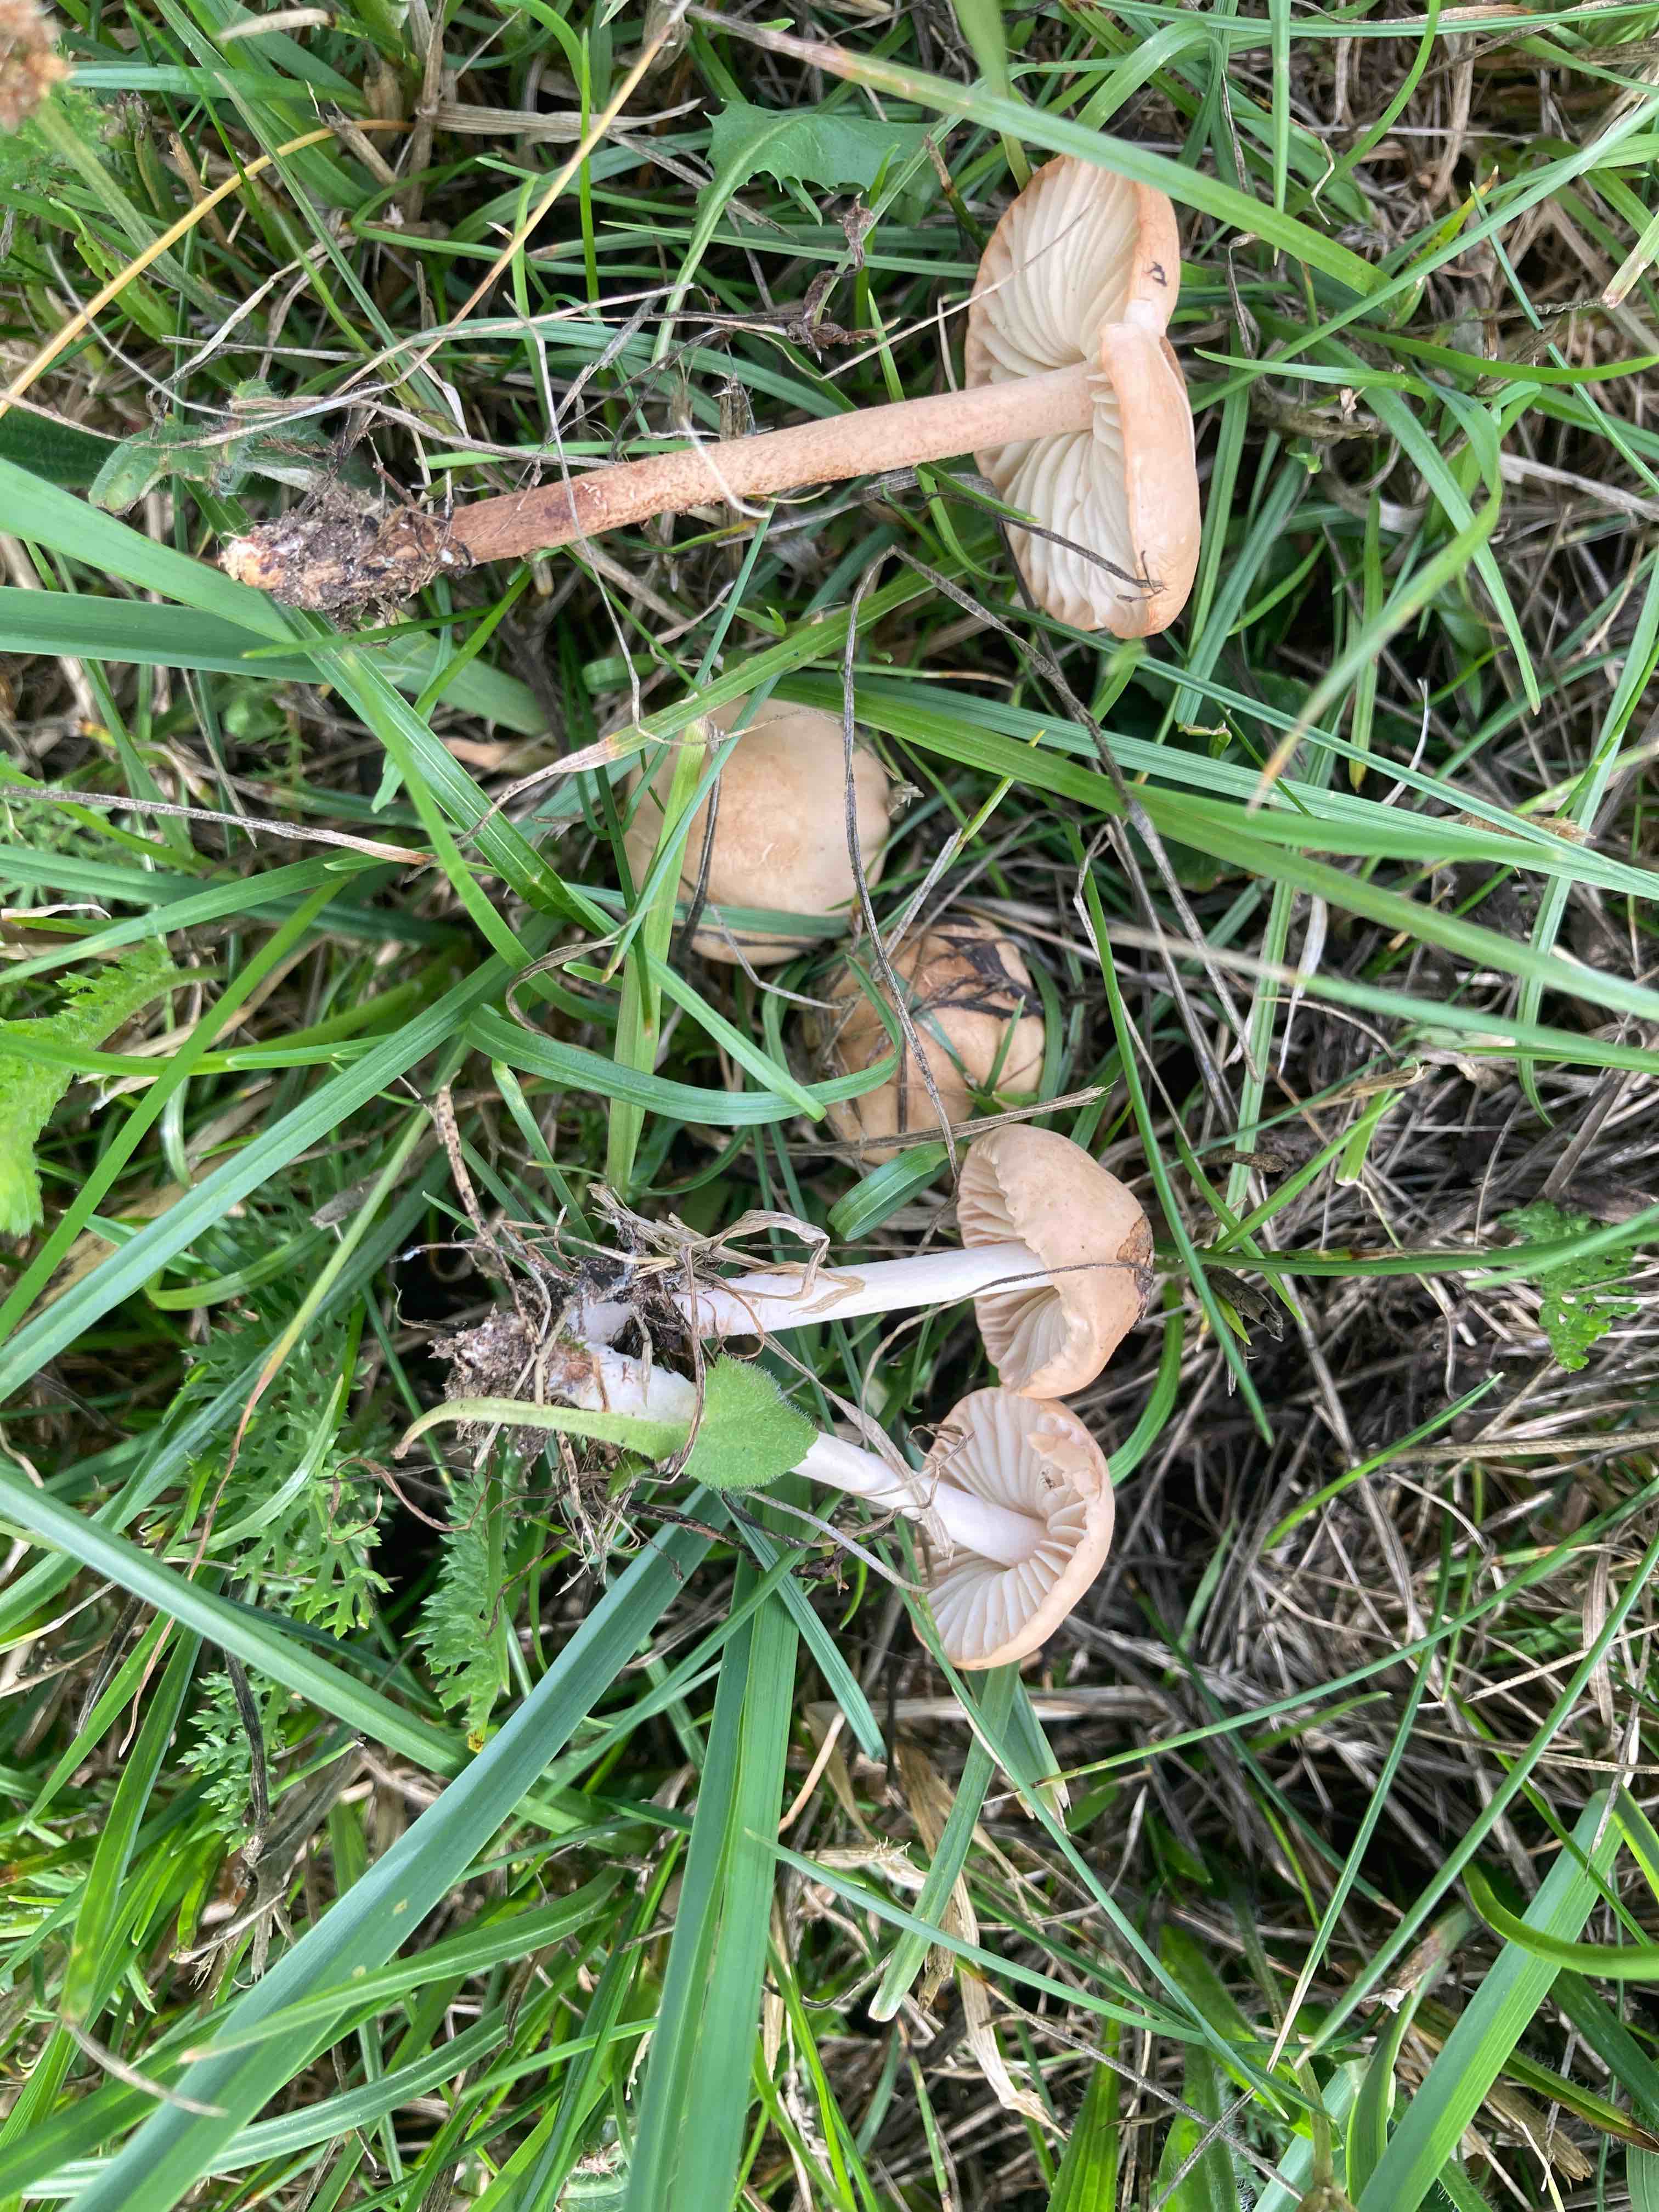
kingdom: Fungi
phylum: Basidiomycota
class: Agaricomycetes
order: Agaricales
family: Marasmiaceae
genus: Marasmius
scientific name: Marasmius oreades
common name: elledans-bruskhat
